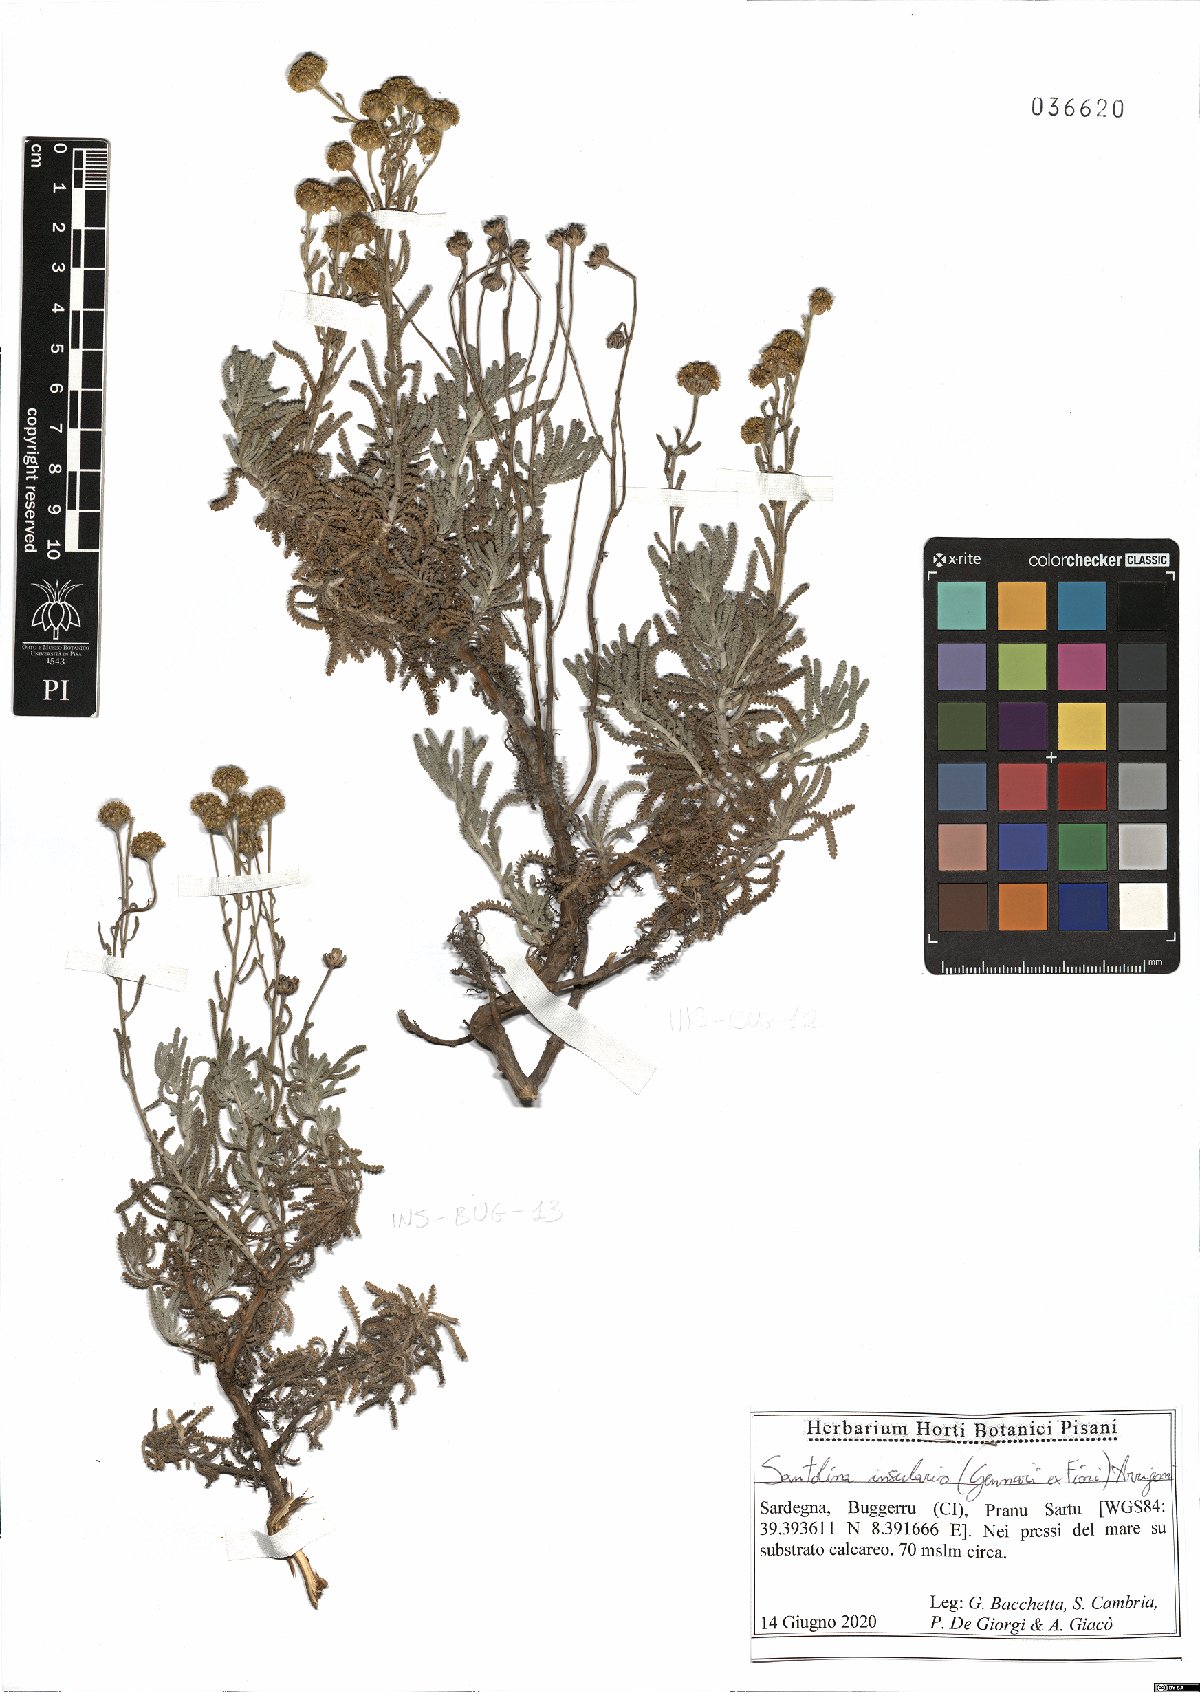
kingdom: Plantae
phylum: Tracheophyta
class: Magnoliopsida
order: Asterales
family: Asteraceae
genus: Santolina
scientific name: Santolina insularis
